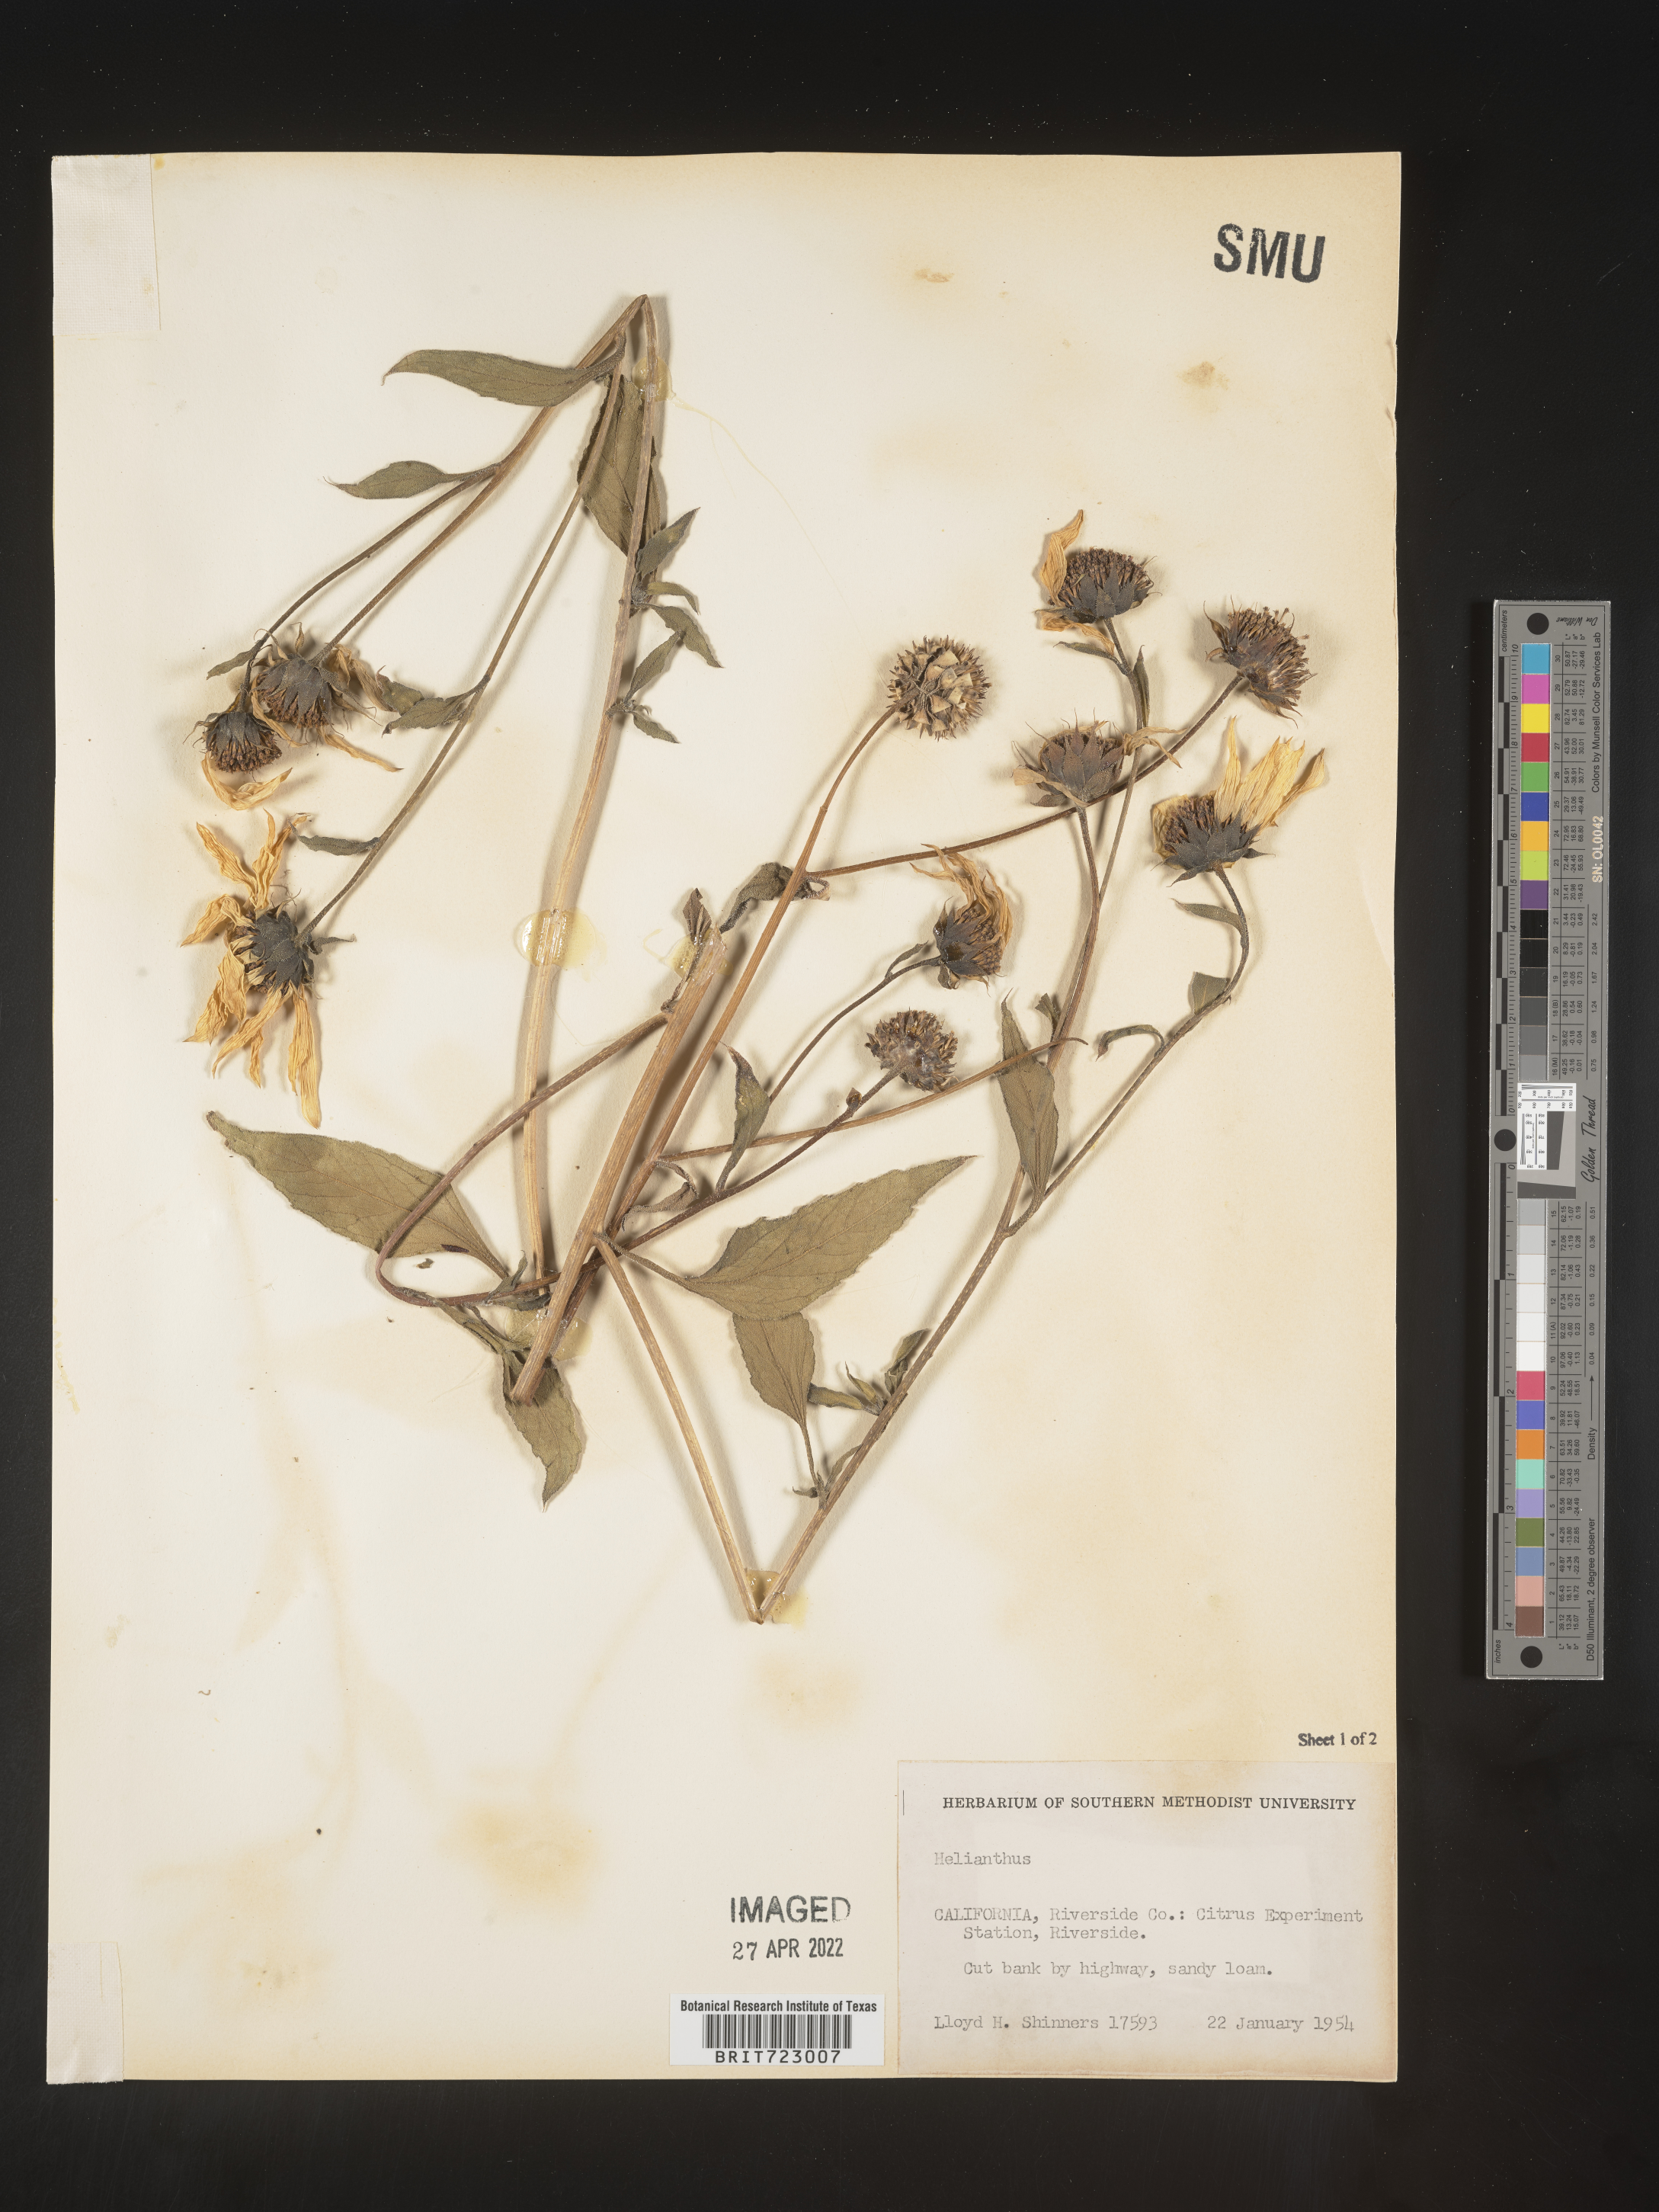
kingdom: Plantae
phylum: Tracheophyta
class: Magnoliopsida
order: Asterales
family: Asteraceae
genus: Helianthus
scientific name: Helianthus
